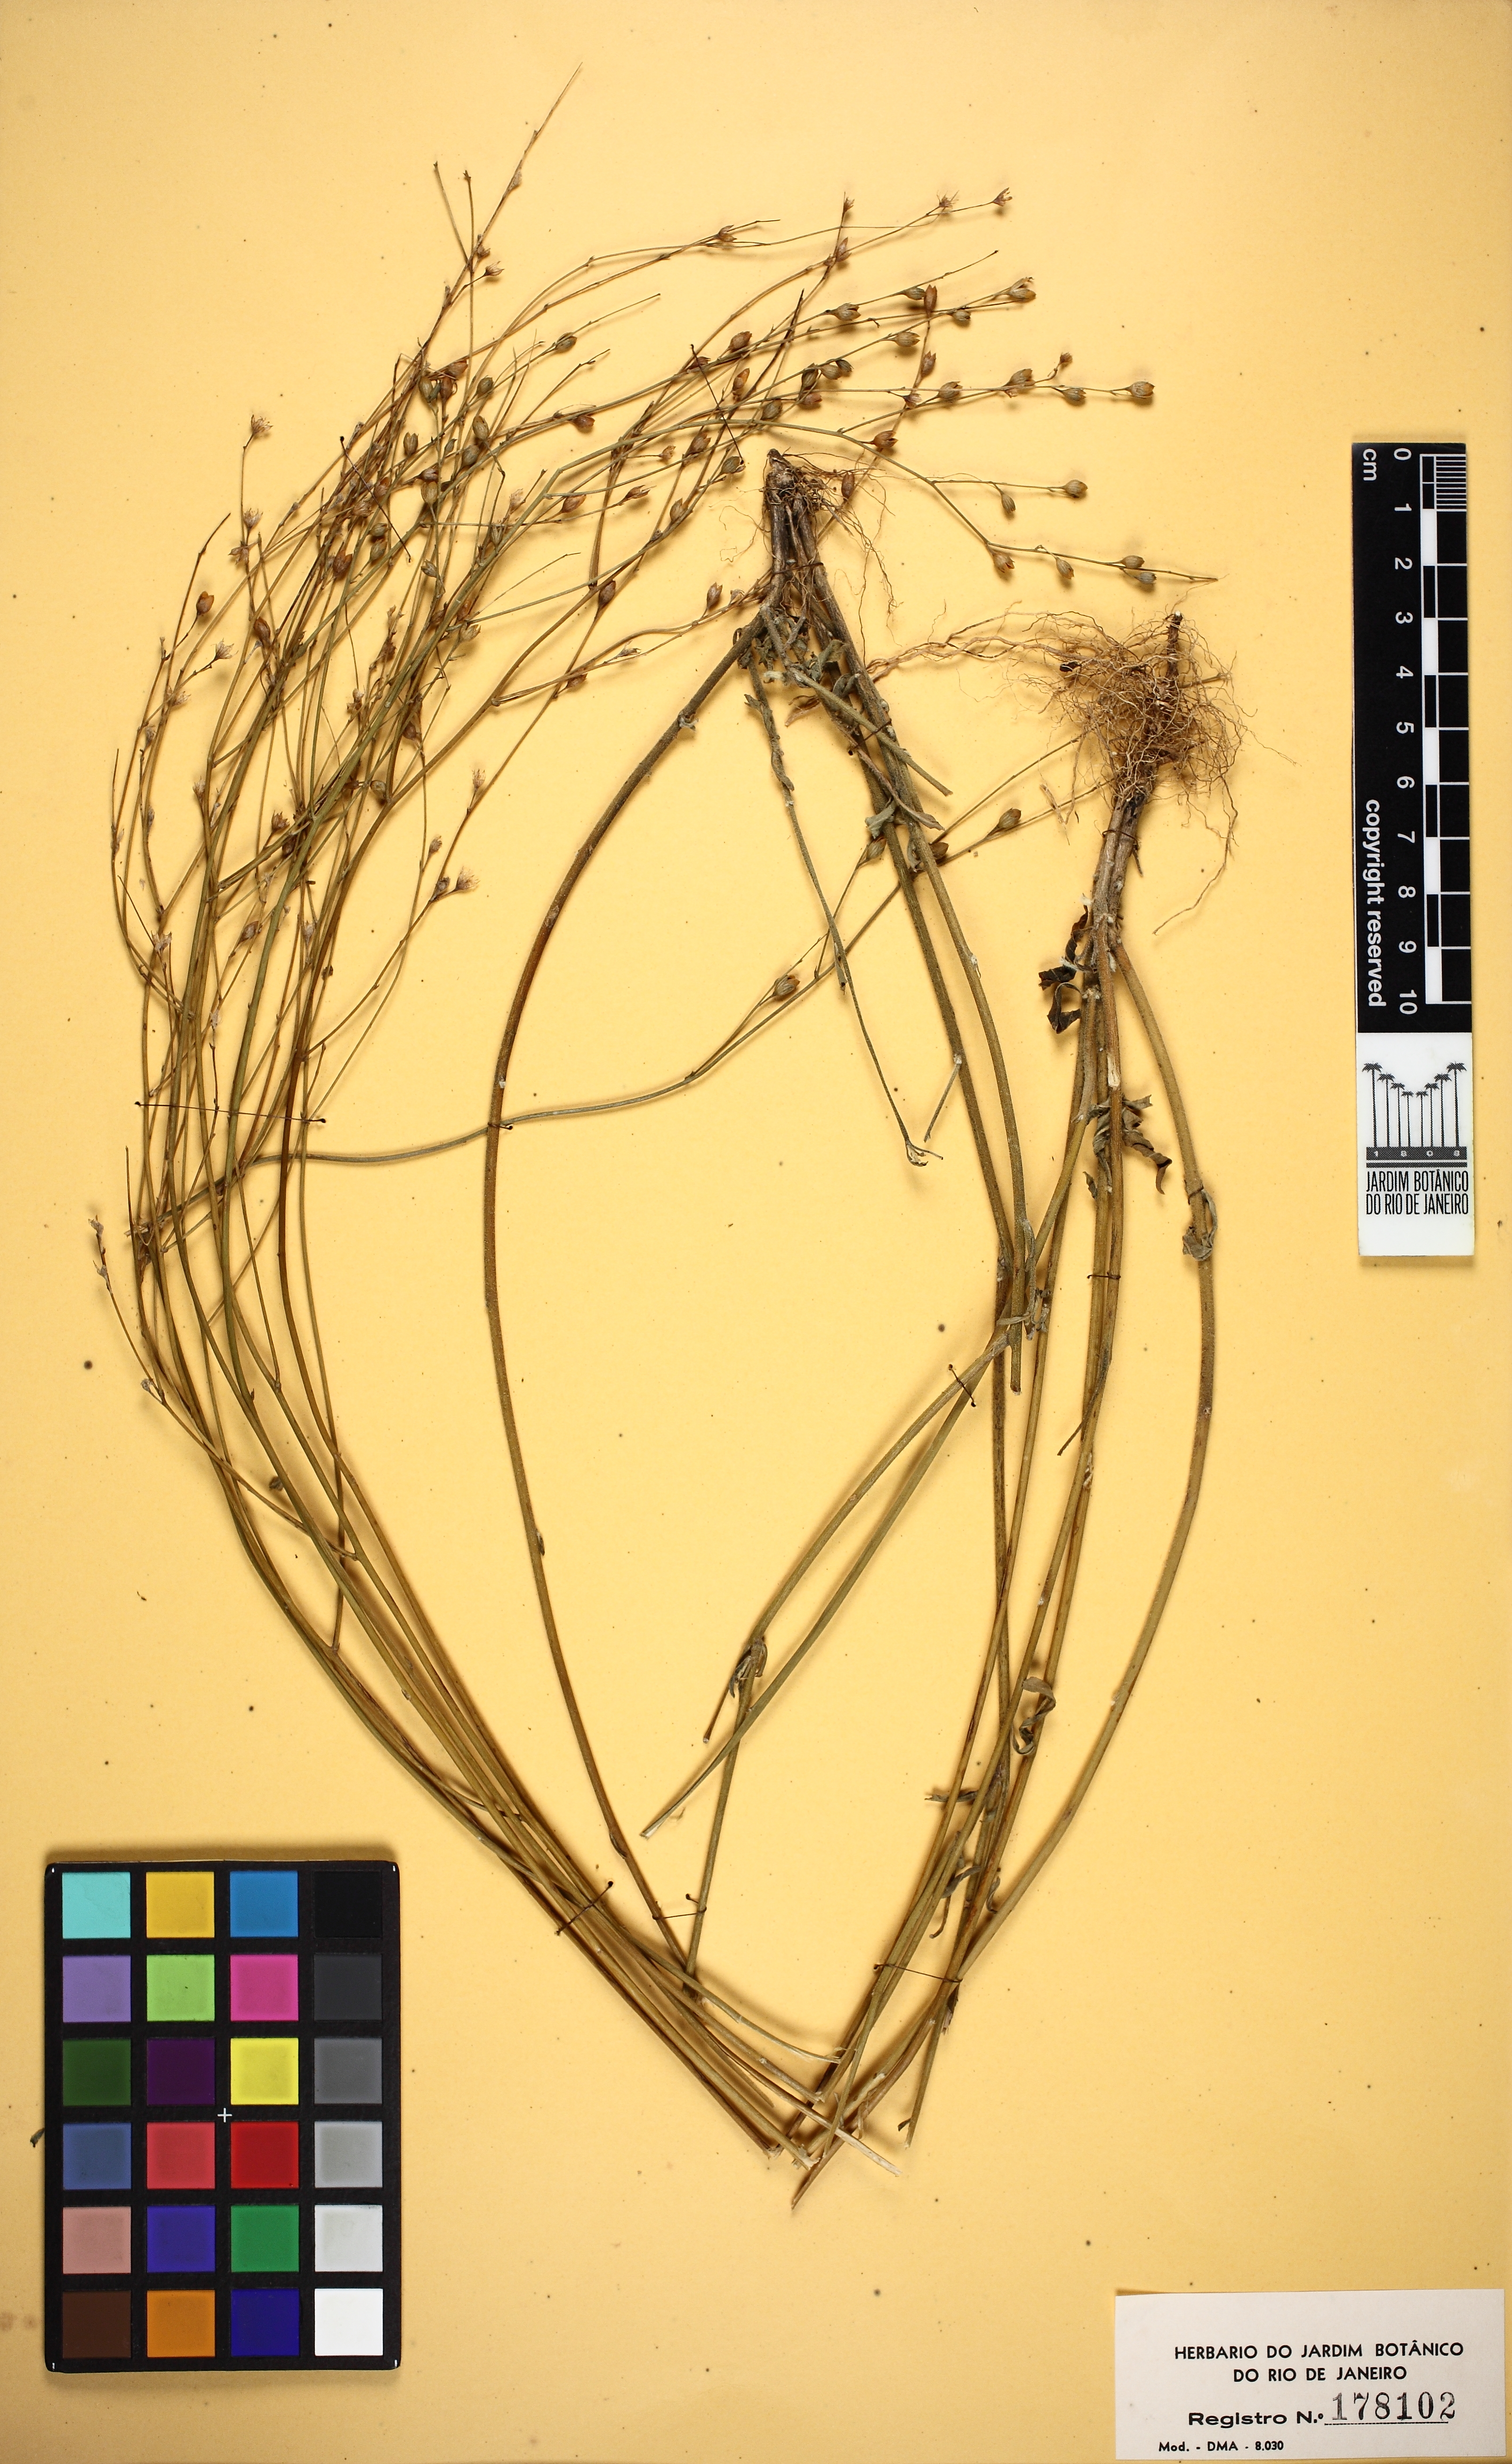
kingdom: Plantae
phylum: Tracheophyta
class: Magnoliopsida
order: Solanales
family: Solanaceae
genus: Schwenckia
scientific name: Schwenckia americana
